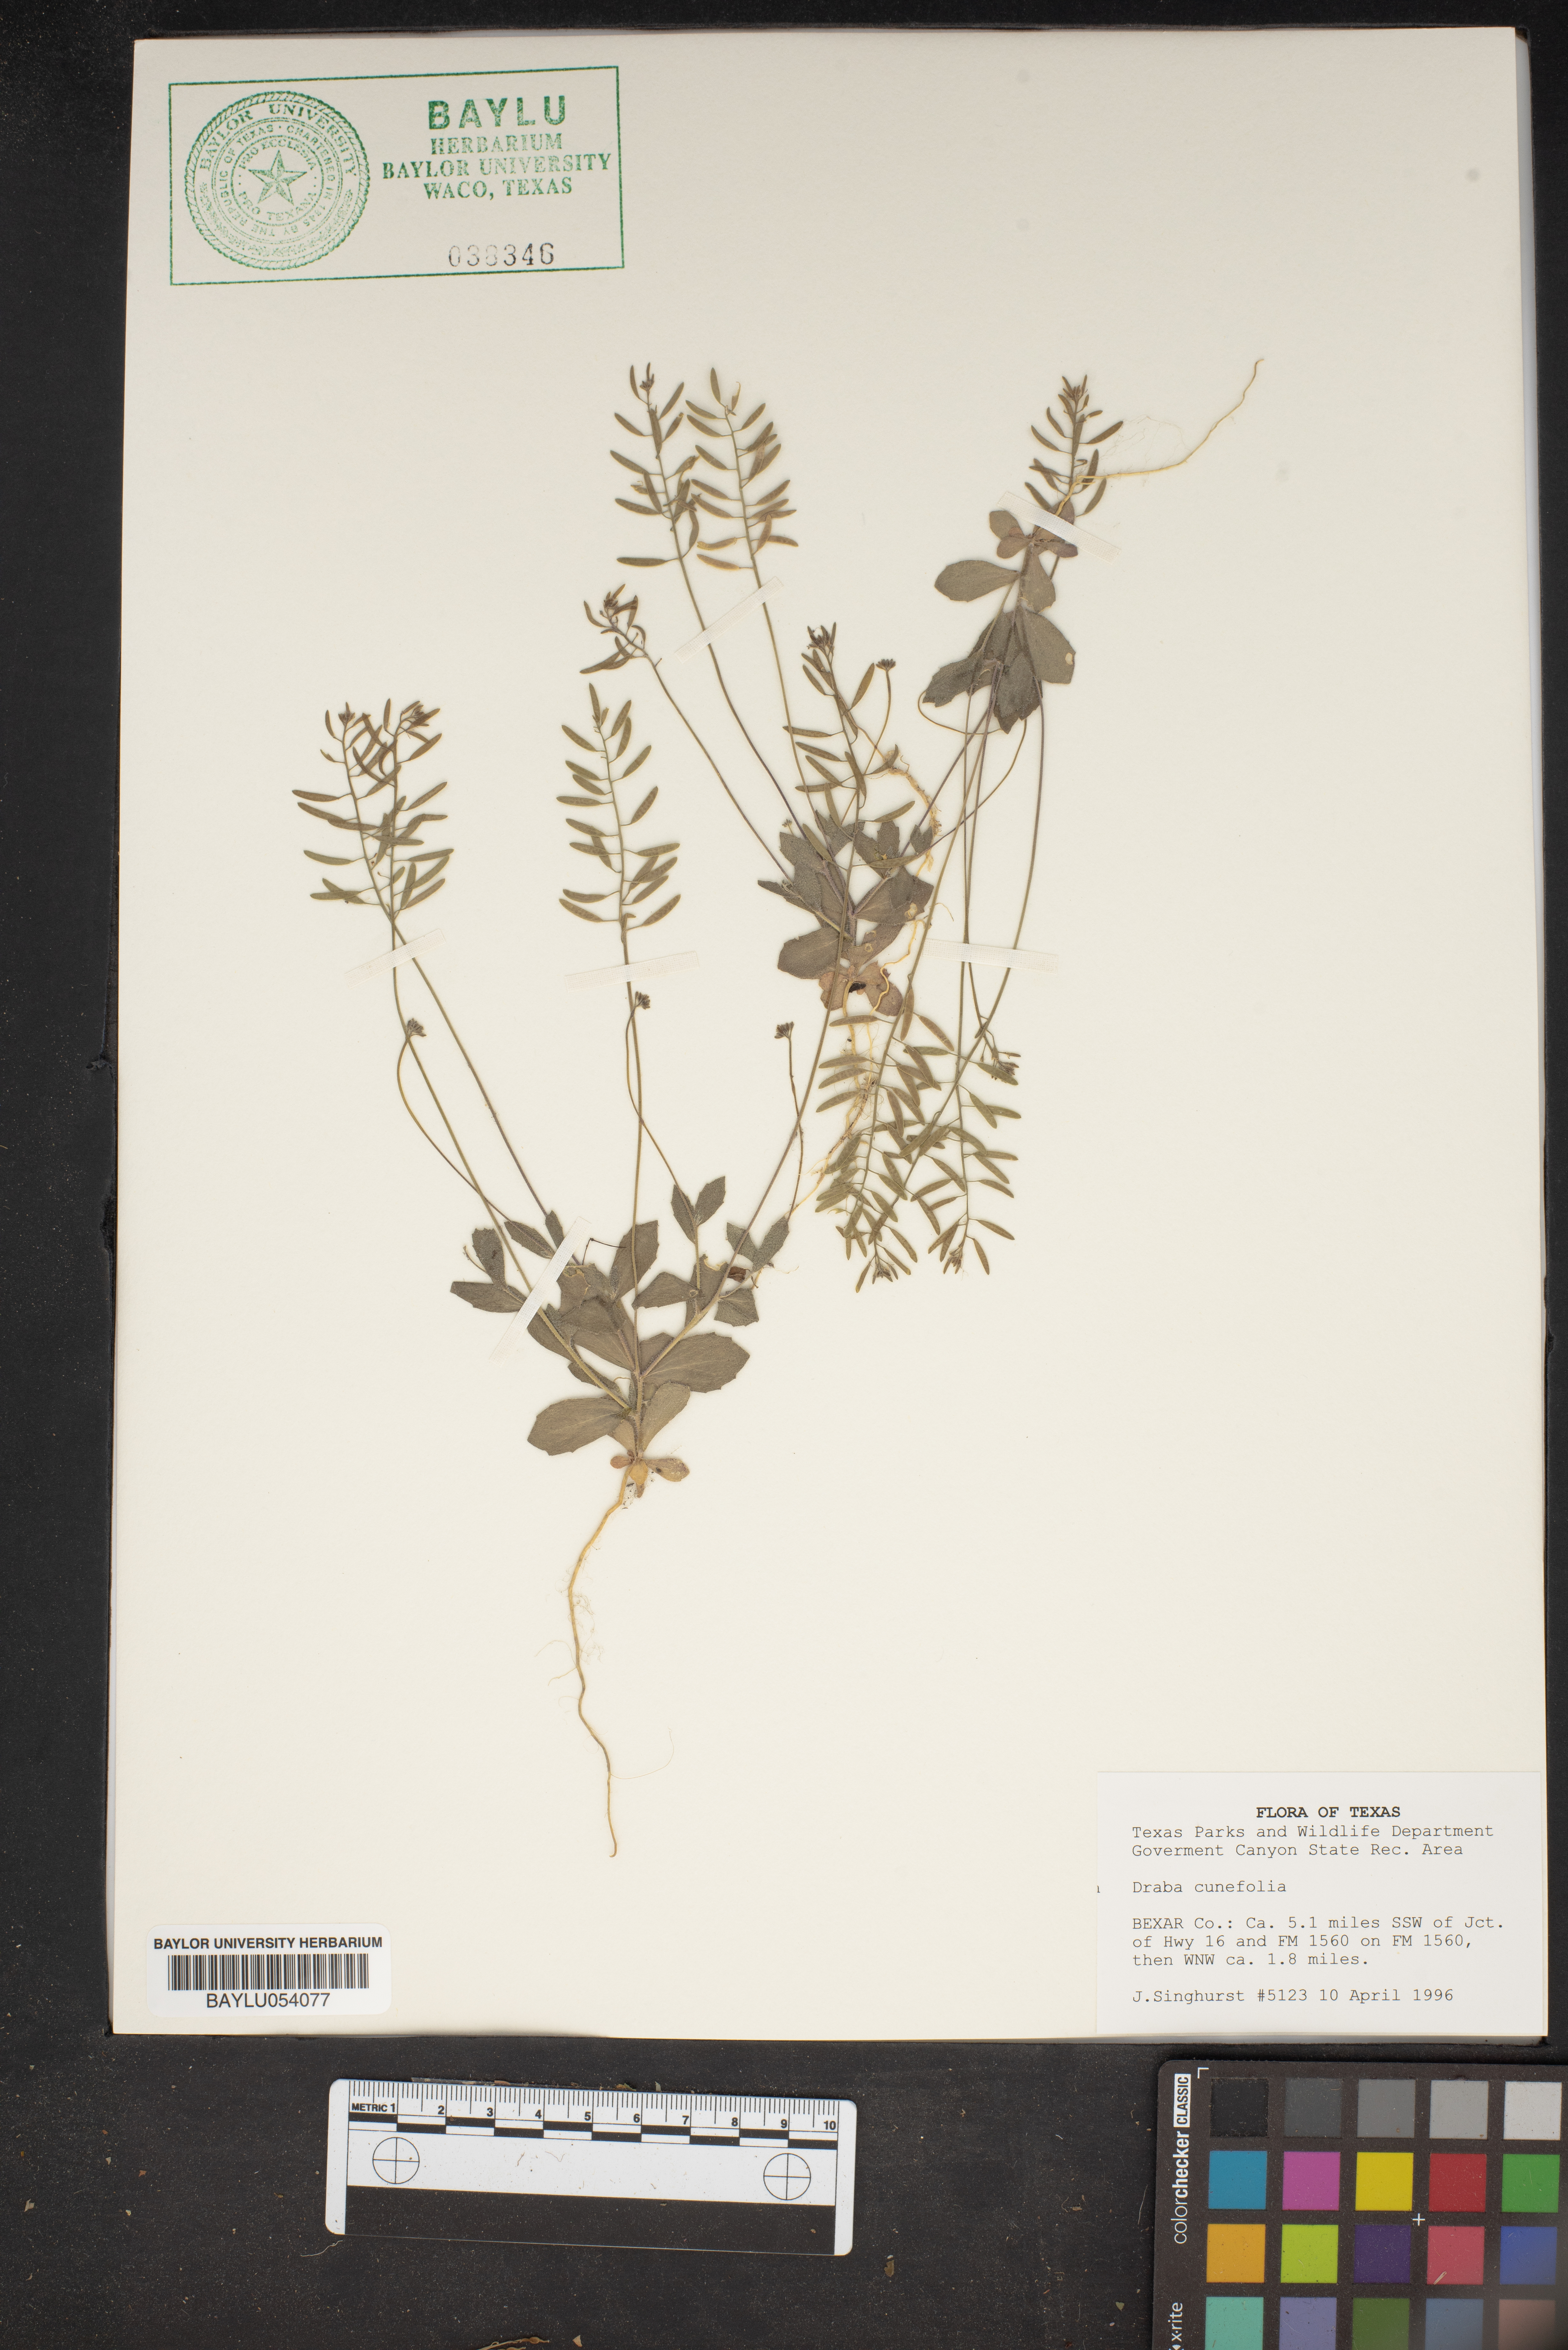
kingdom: Plantae
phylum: Tracheophyta
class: Magnoliopsida
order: Brassicales
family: Brassicaceae
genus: Tomostima
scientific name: Tomostima cuneifolia
